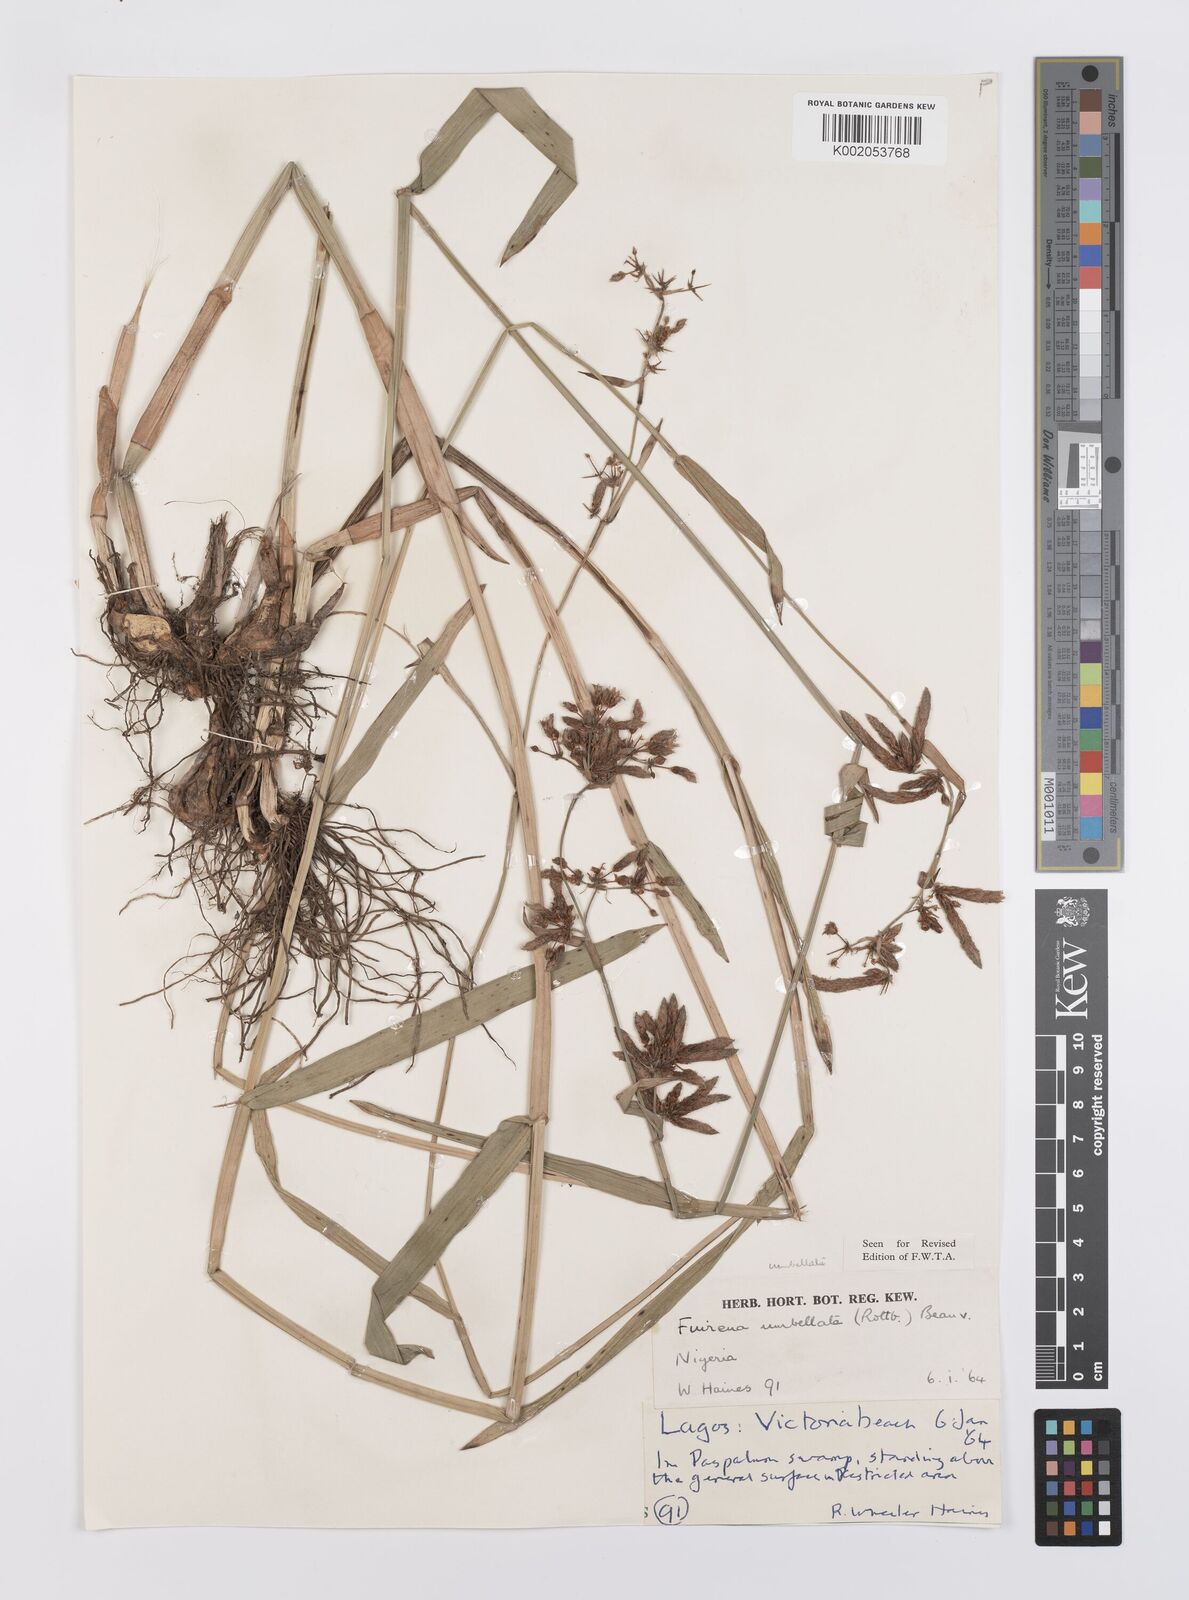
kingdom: Plantae
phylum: Tracheophyta
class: Liliopsida
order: Poales
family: Cyperaceae
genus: Fuirena
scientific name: Fuirena umbellata
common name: Yefen
